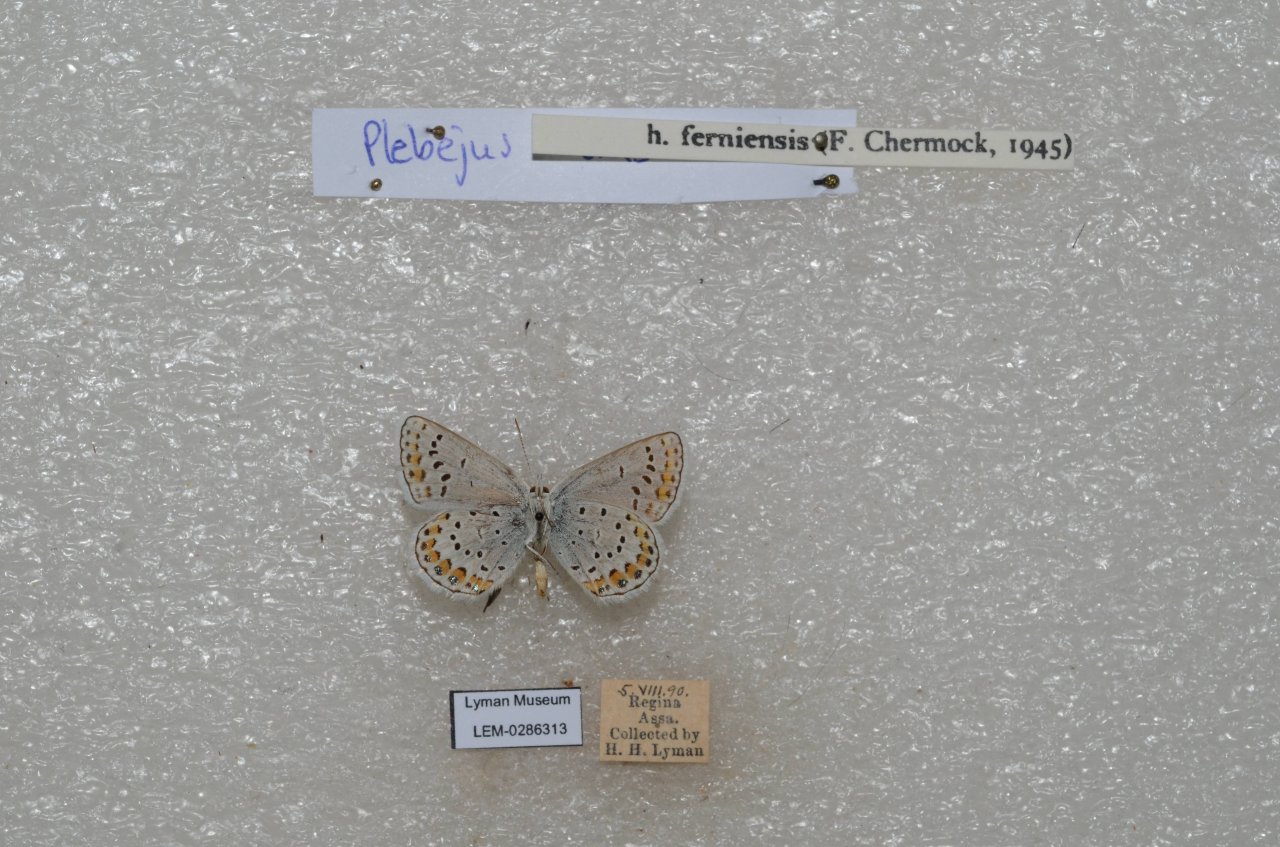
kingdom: Animalia
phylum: Arthropoda
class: Insecta
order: Lepidoptera
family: Lycaenidae
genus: Lycaeides
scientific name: Lycaeides idas
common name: Northern Blue
